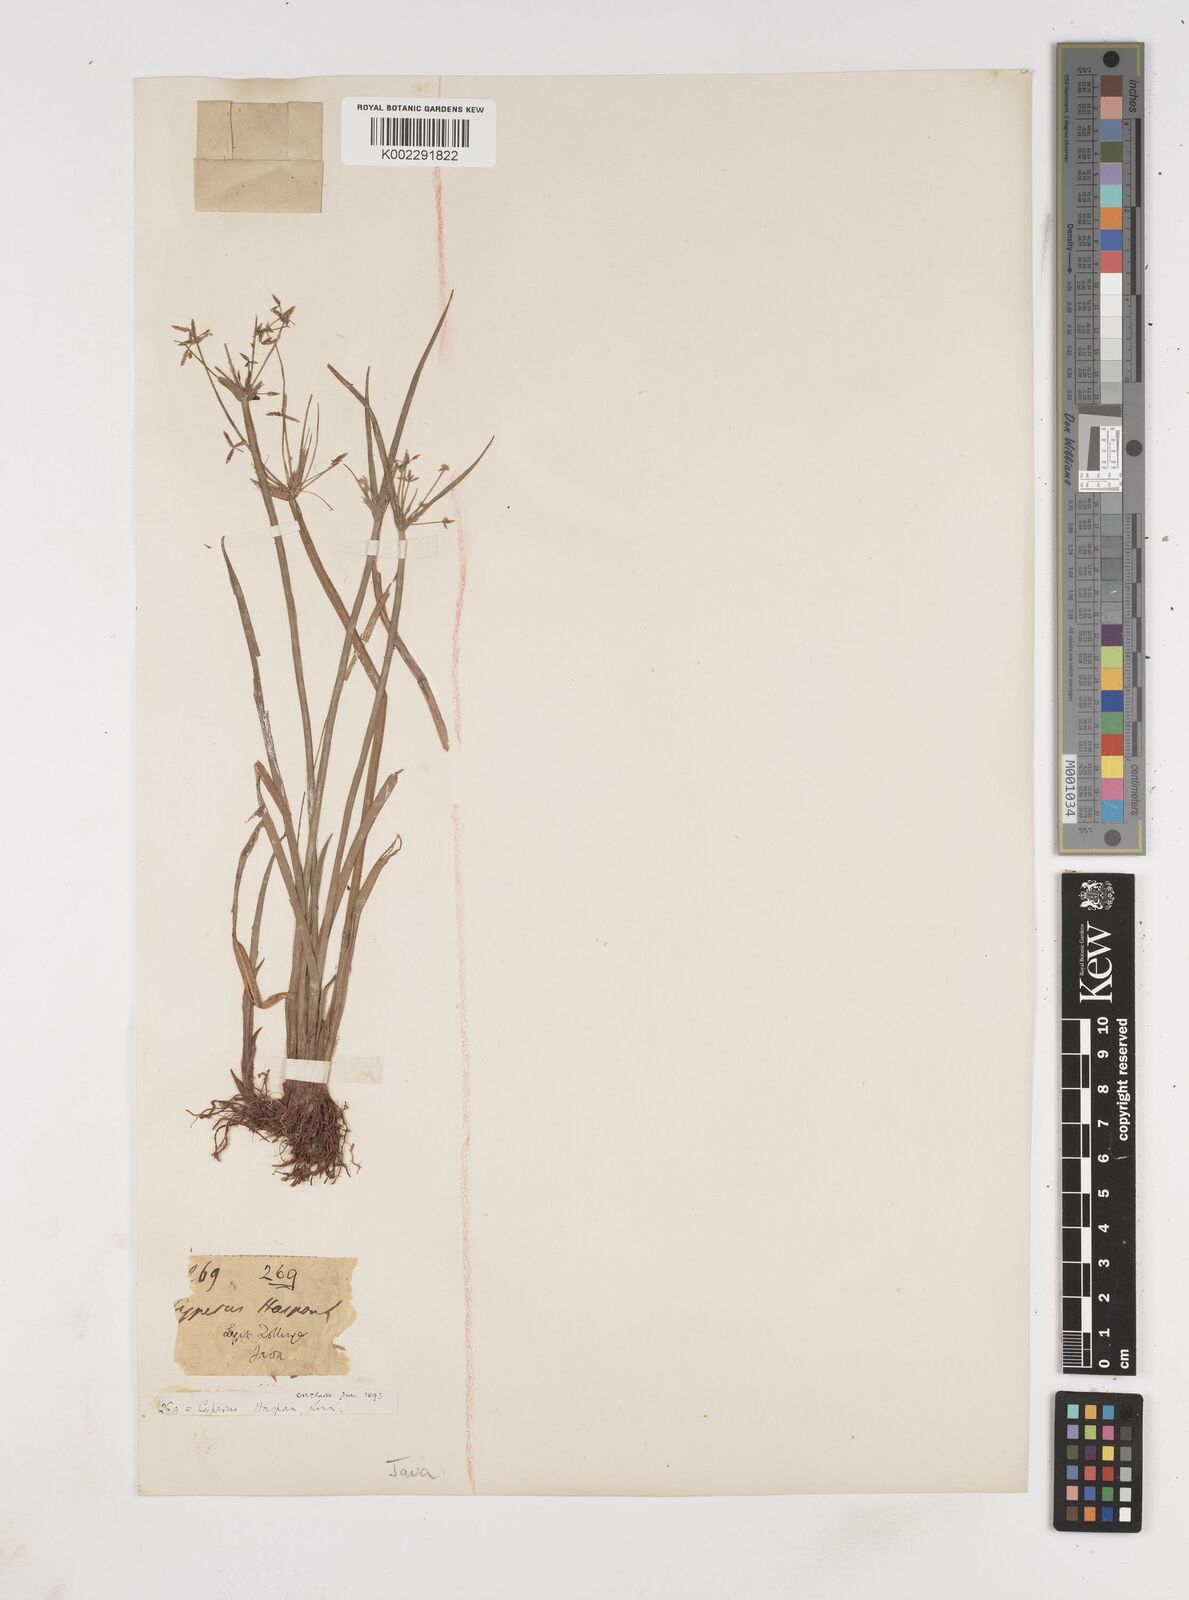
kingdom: Plantae
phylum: Tracheophyta
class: Liliopsida
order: Poales
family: Cyperaceae
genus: Cyperus
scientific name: Cyperus haspan
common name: Haspan flatsedge
